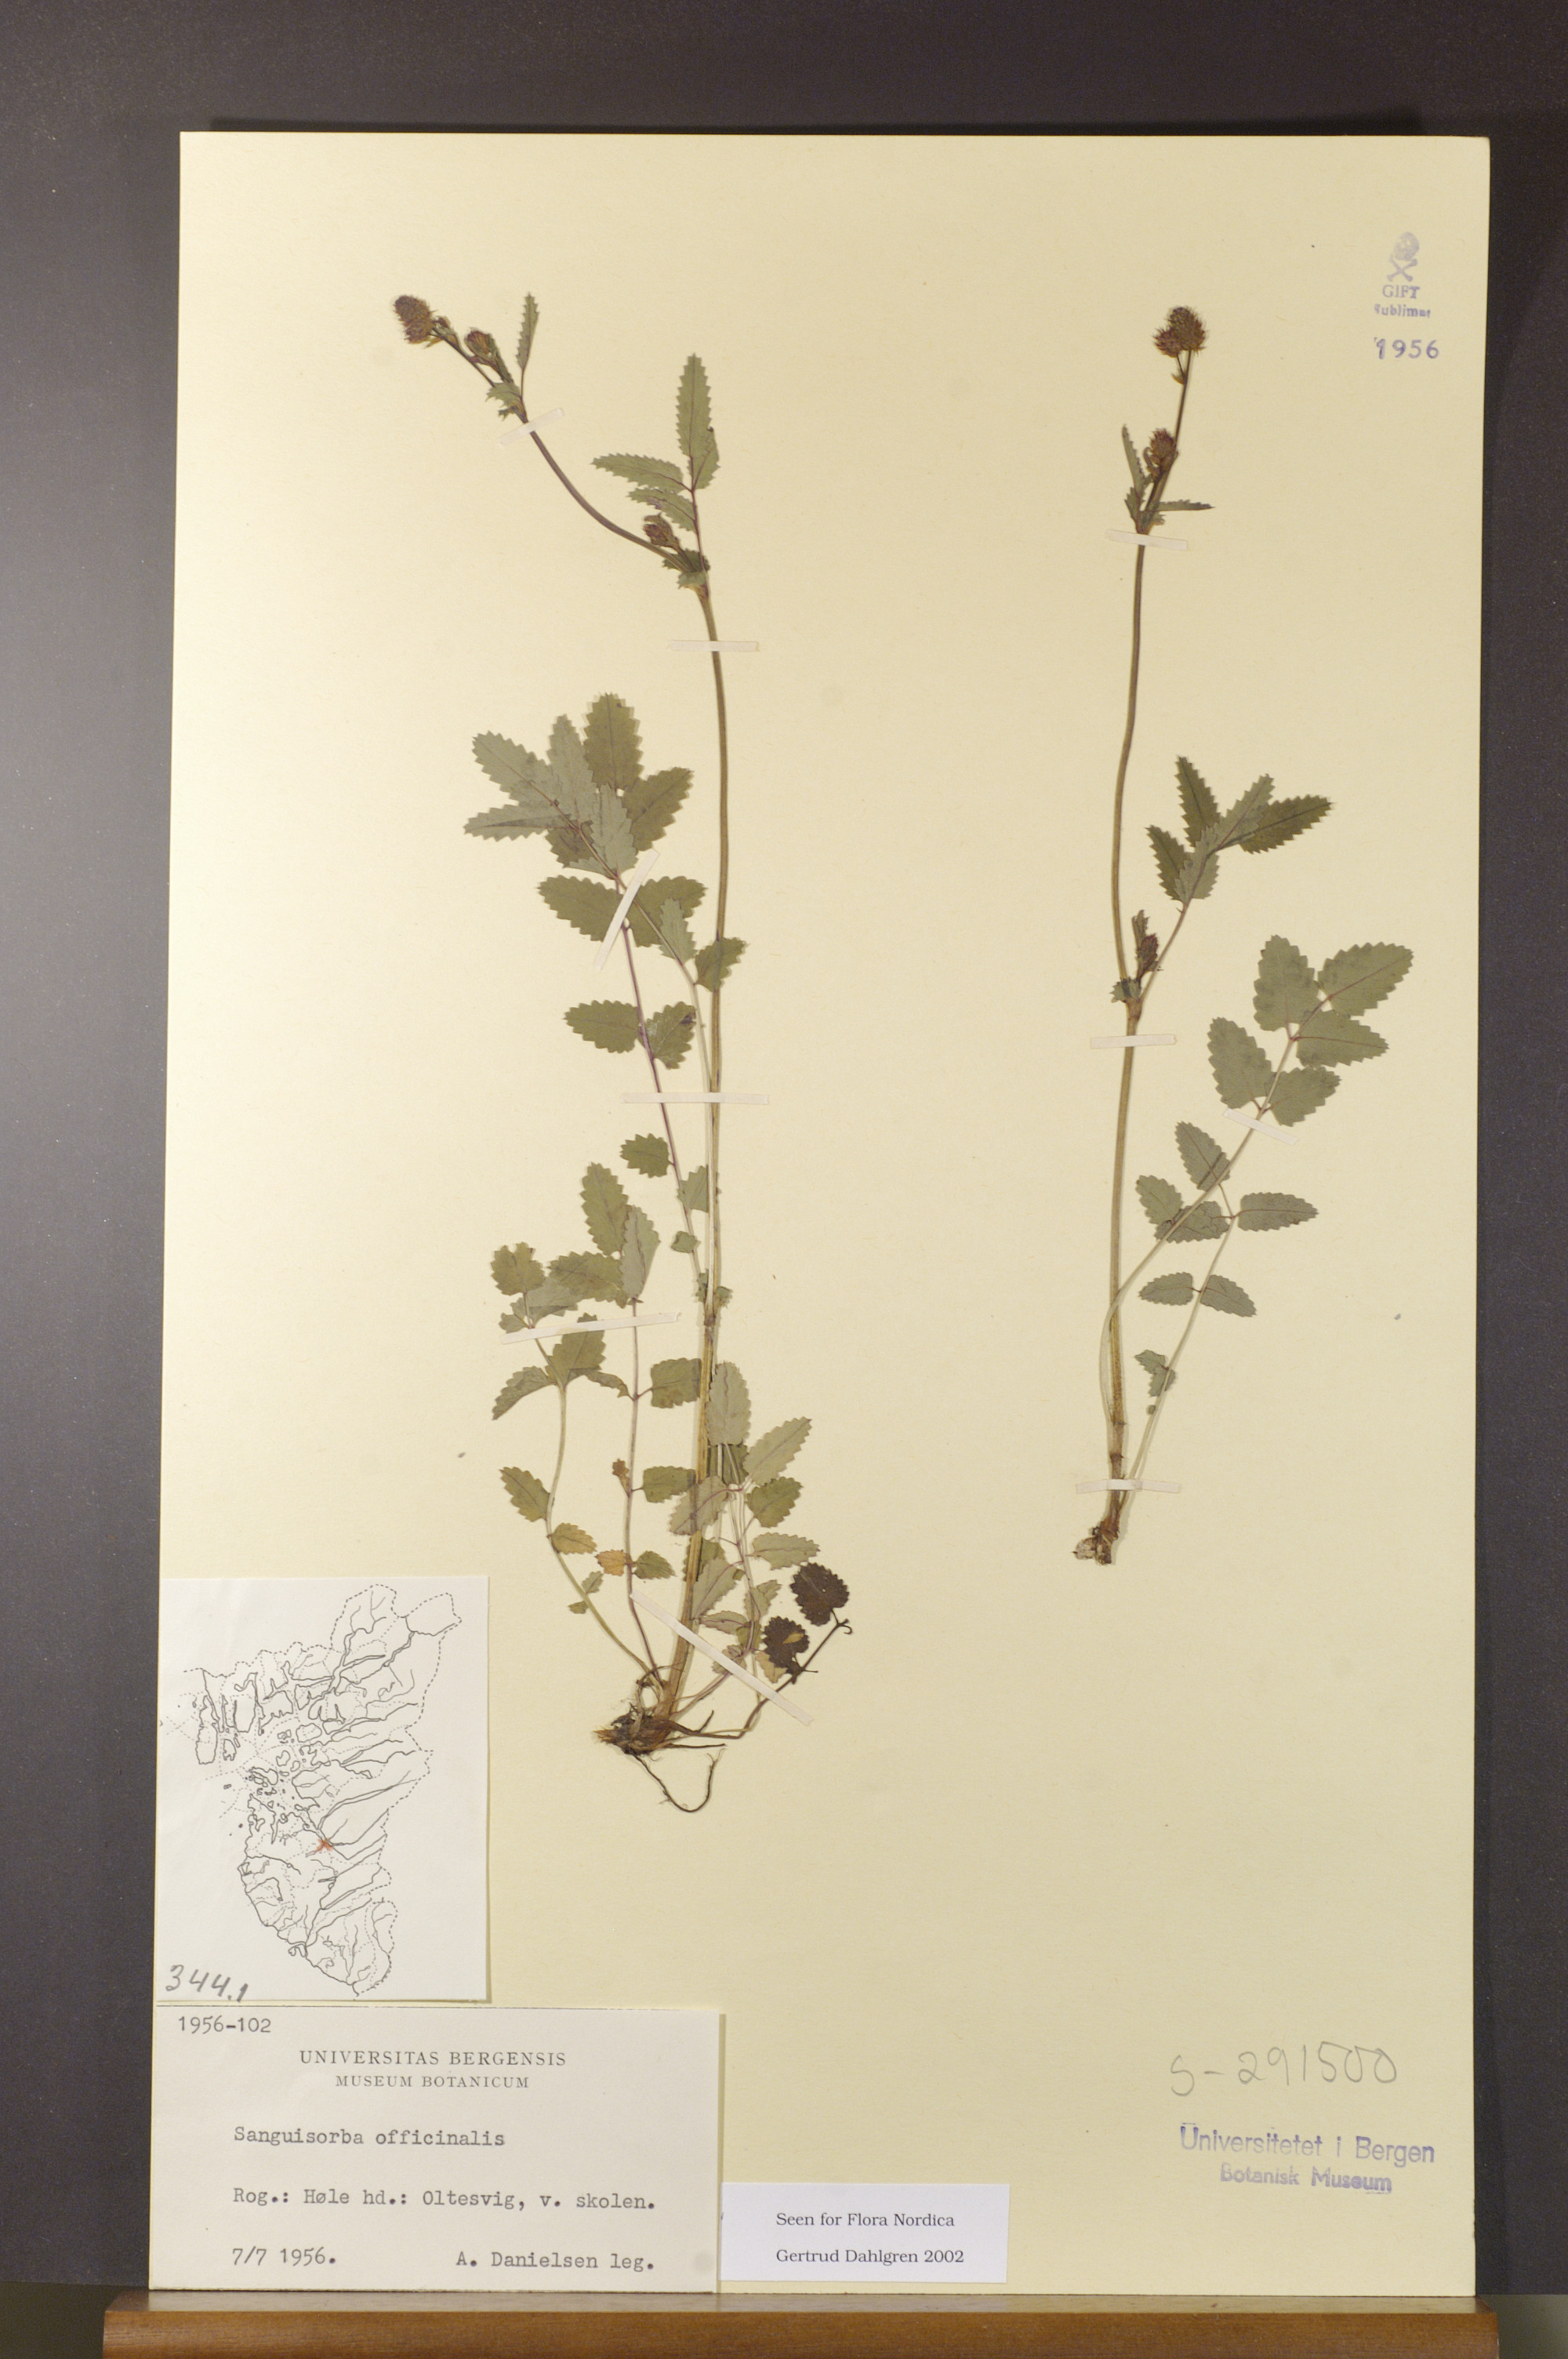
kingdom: Plantae
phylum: Tracheophyta
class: Magnoliopsida
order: Rosales
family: Rosaceae
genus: Sanguisorba
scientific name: Sanguisorba officinalis
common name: Great burnet
